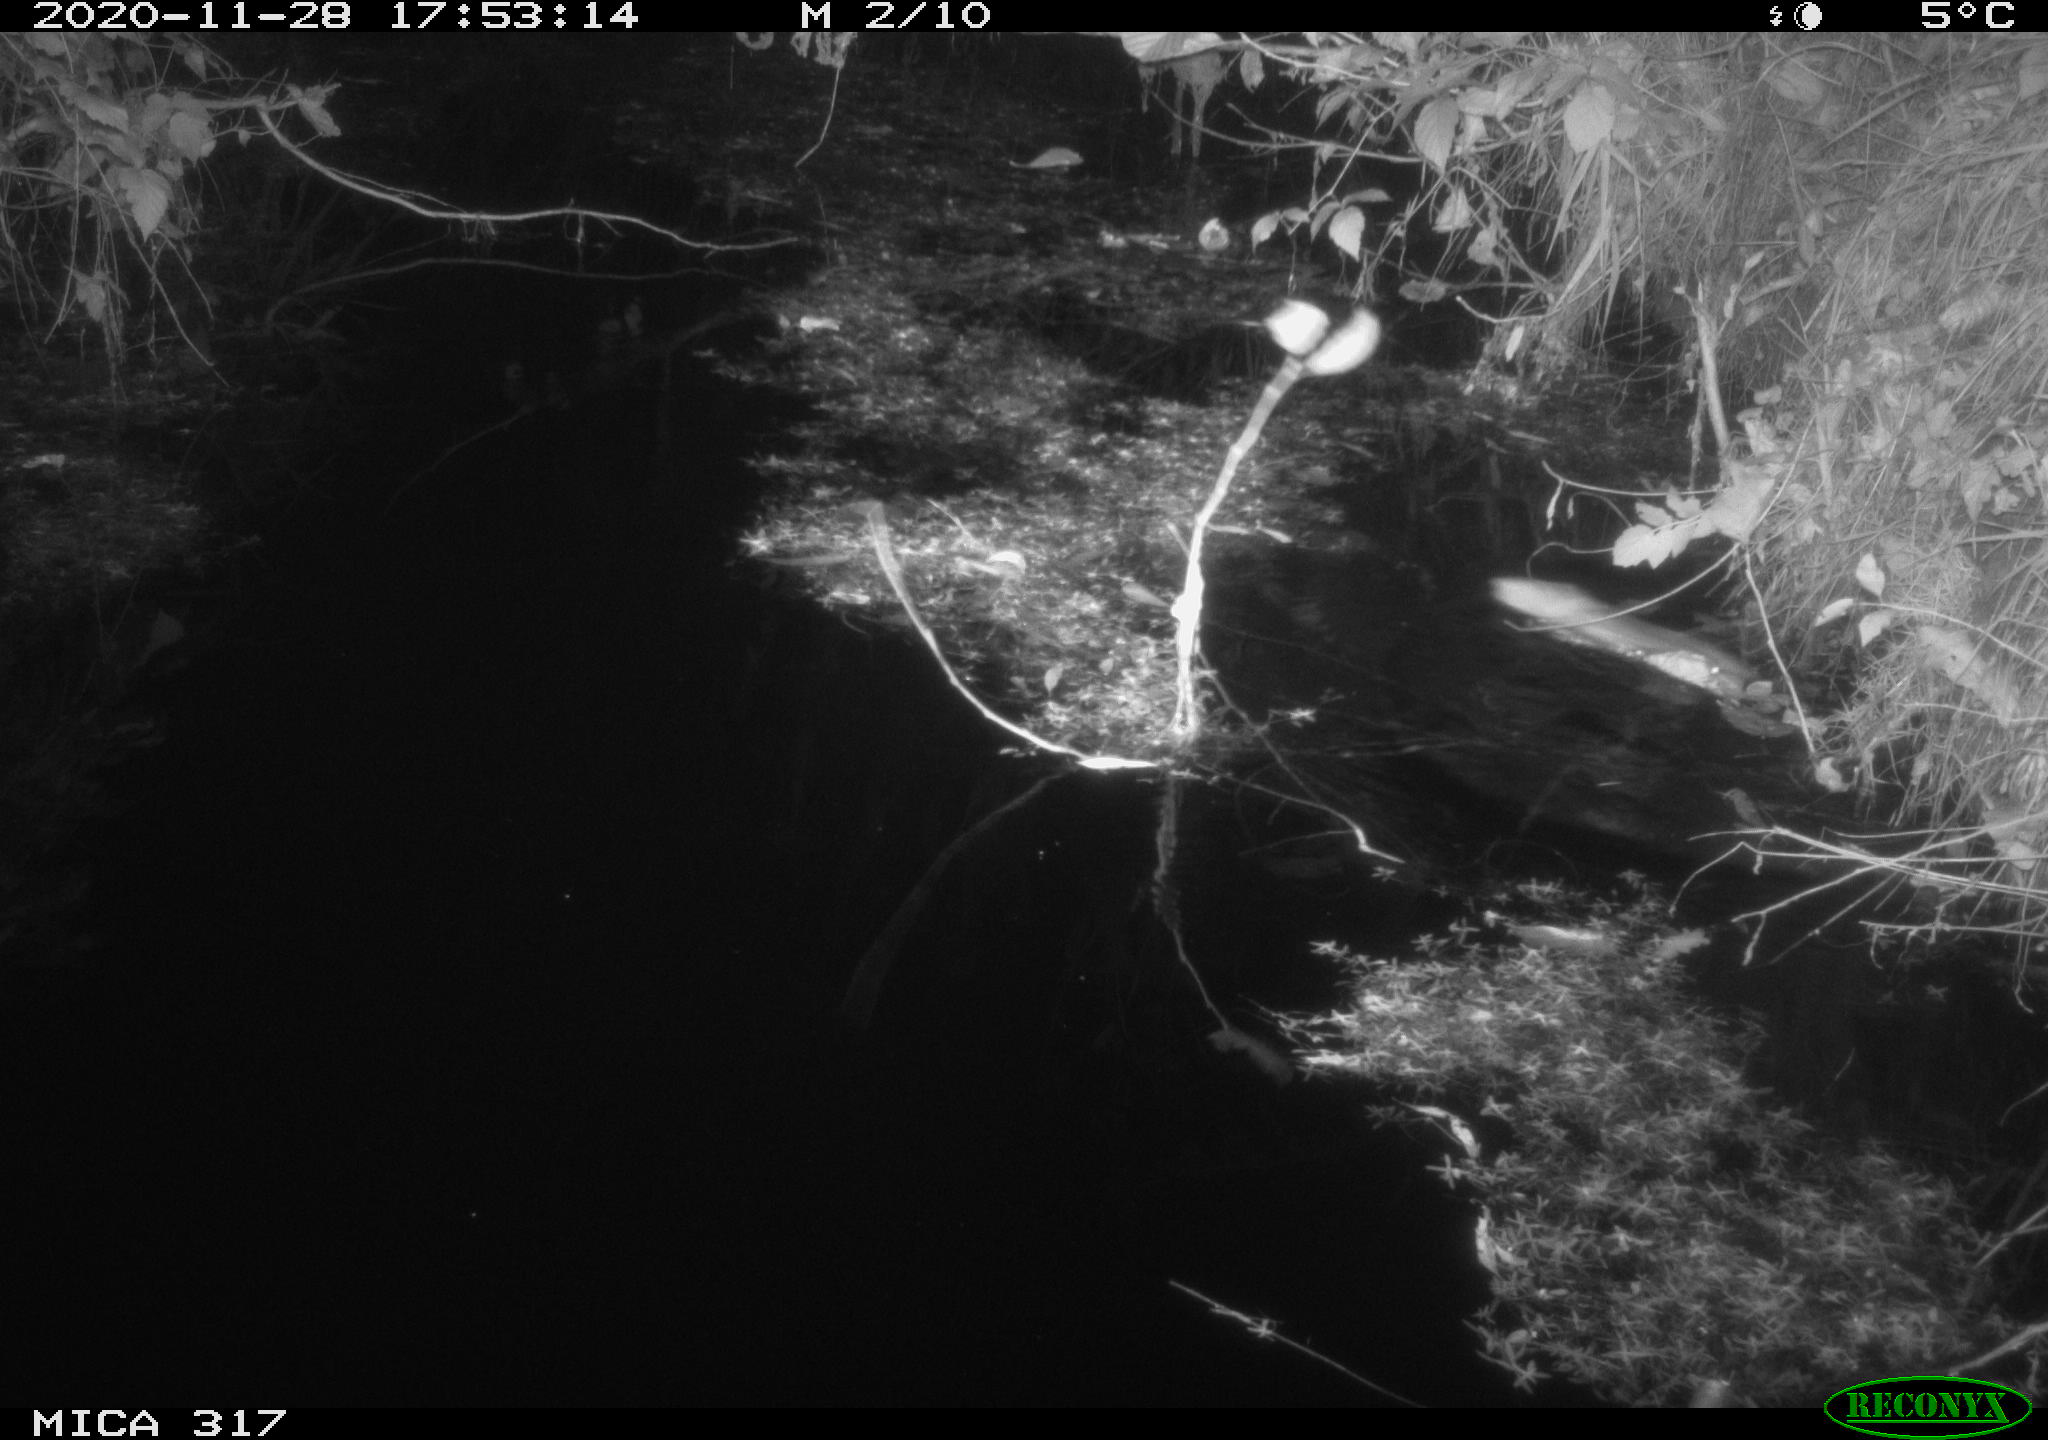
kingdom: Animalia
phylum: Chordata
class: Mammalia
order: Rodentia
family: Muridae
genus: Rattus
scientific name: Rattus norvegicus
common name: Brown rat
